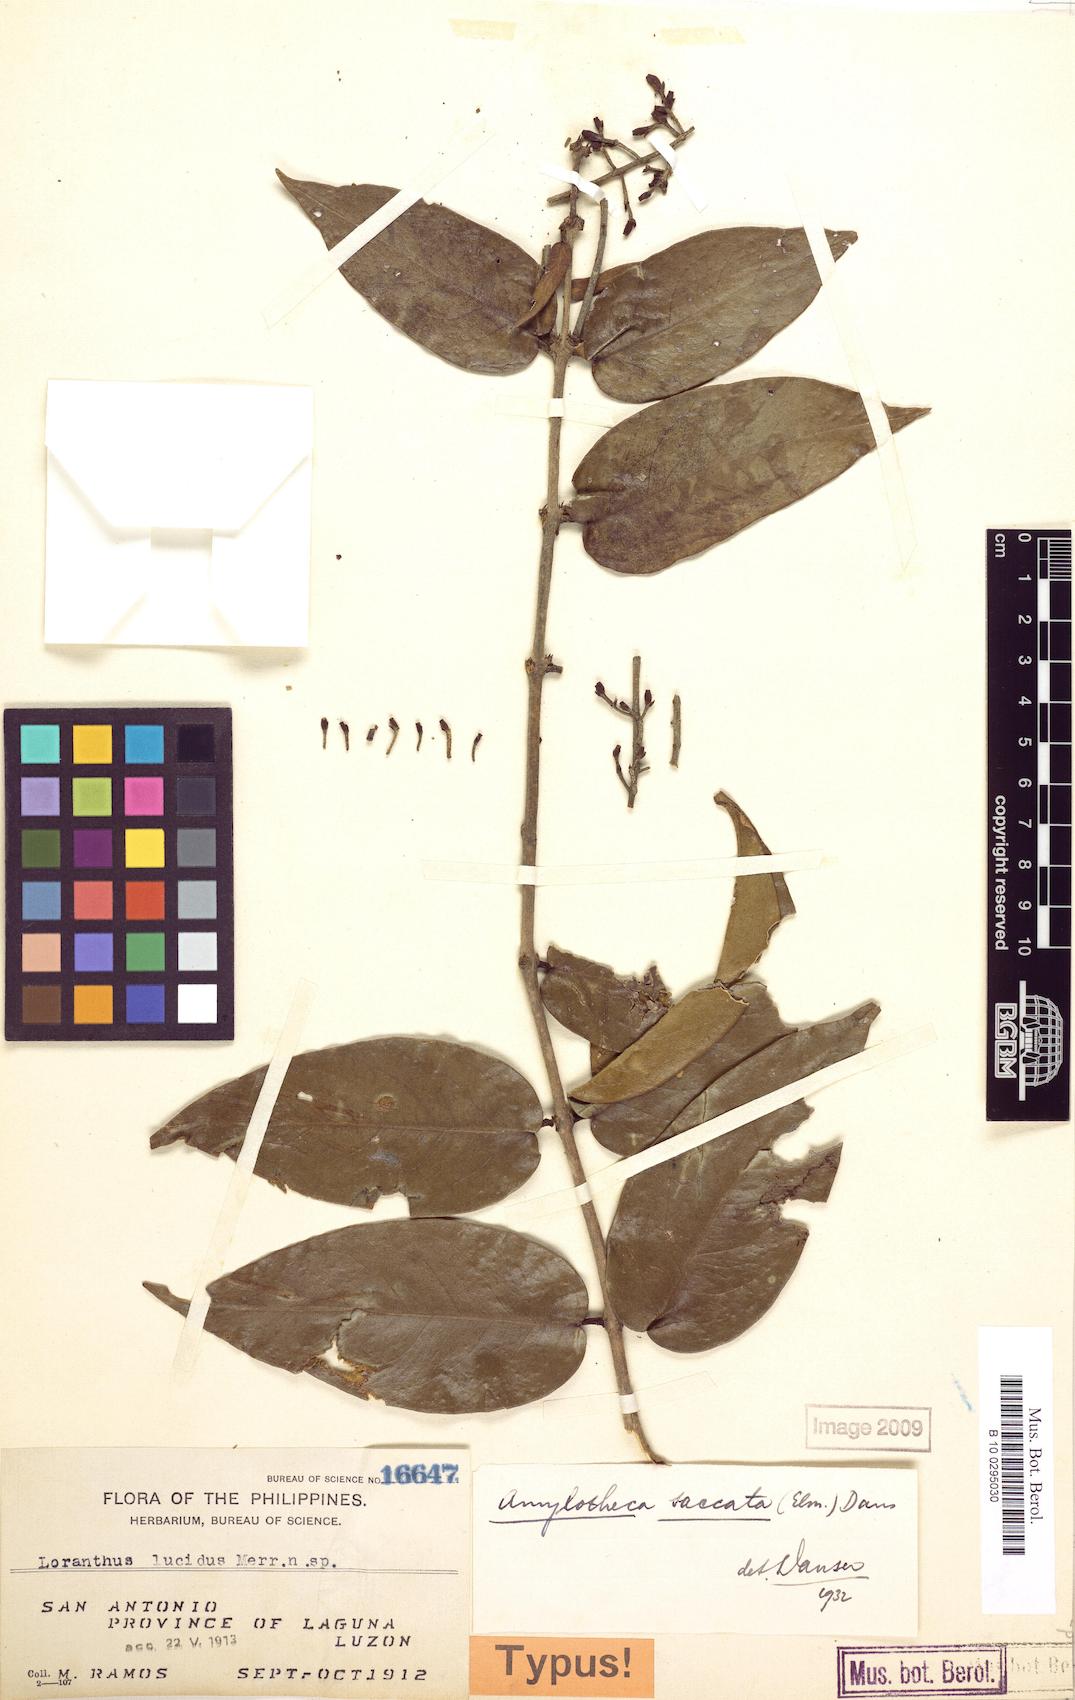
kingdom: Plantae
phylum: Tracheophyta
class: Magnoliopsida
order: Santalales
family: Loranthaceae
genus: Decaisnina
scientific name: Decaisnina aherniana
